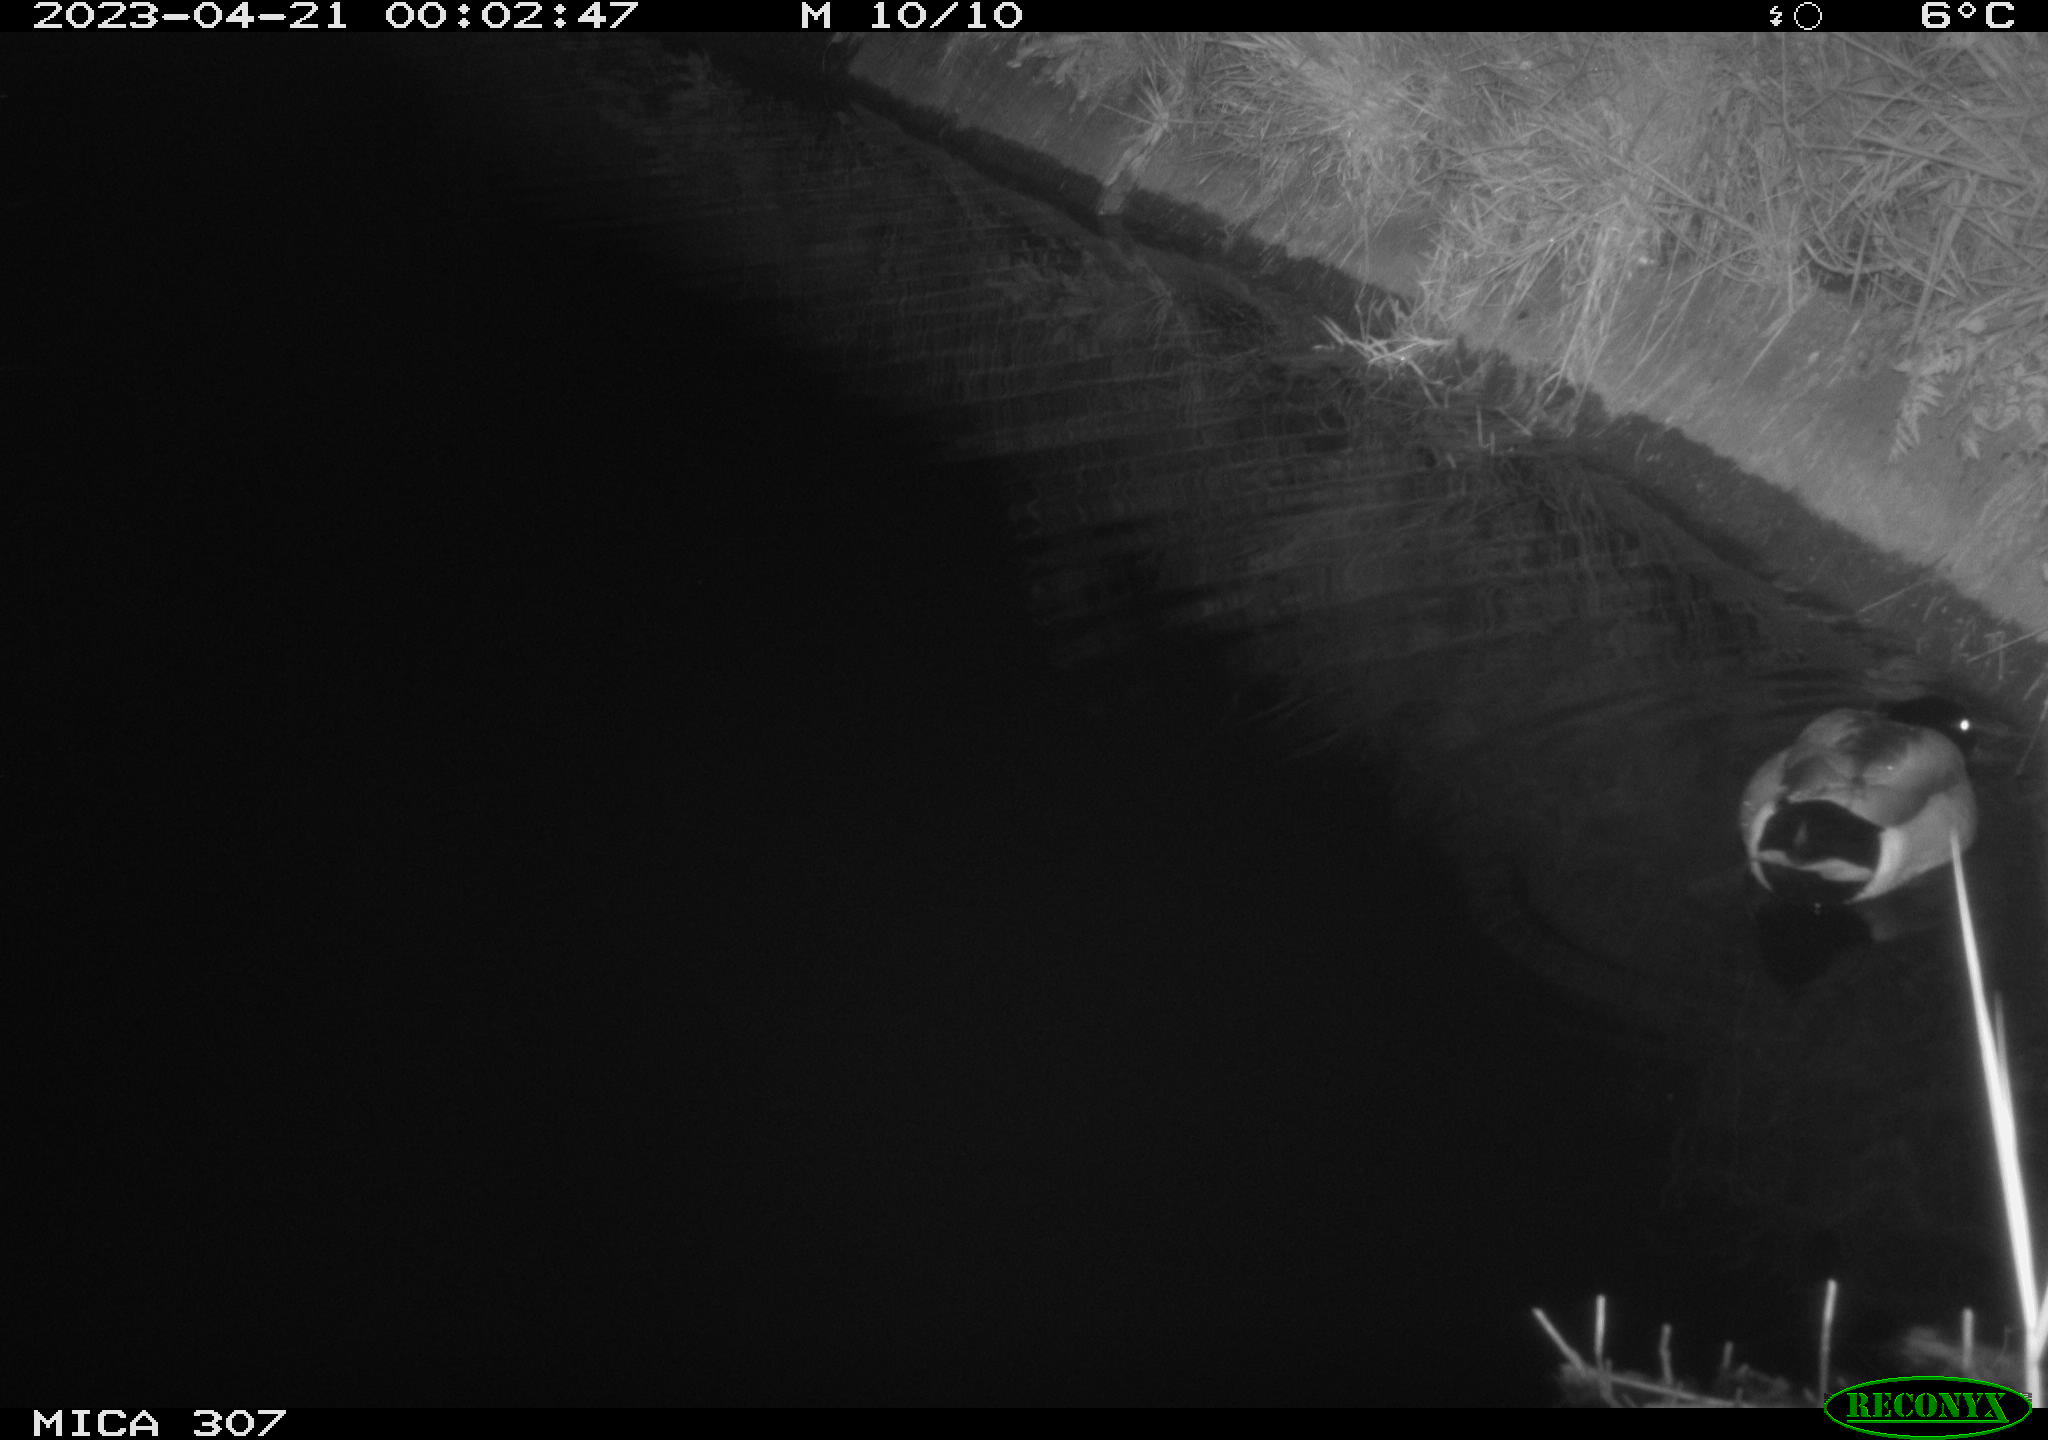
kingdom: Animalia
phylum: Chordata
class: Aves
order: Anseriformes
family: Anatidae
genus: Anas
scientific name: Anas
